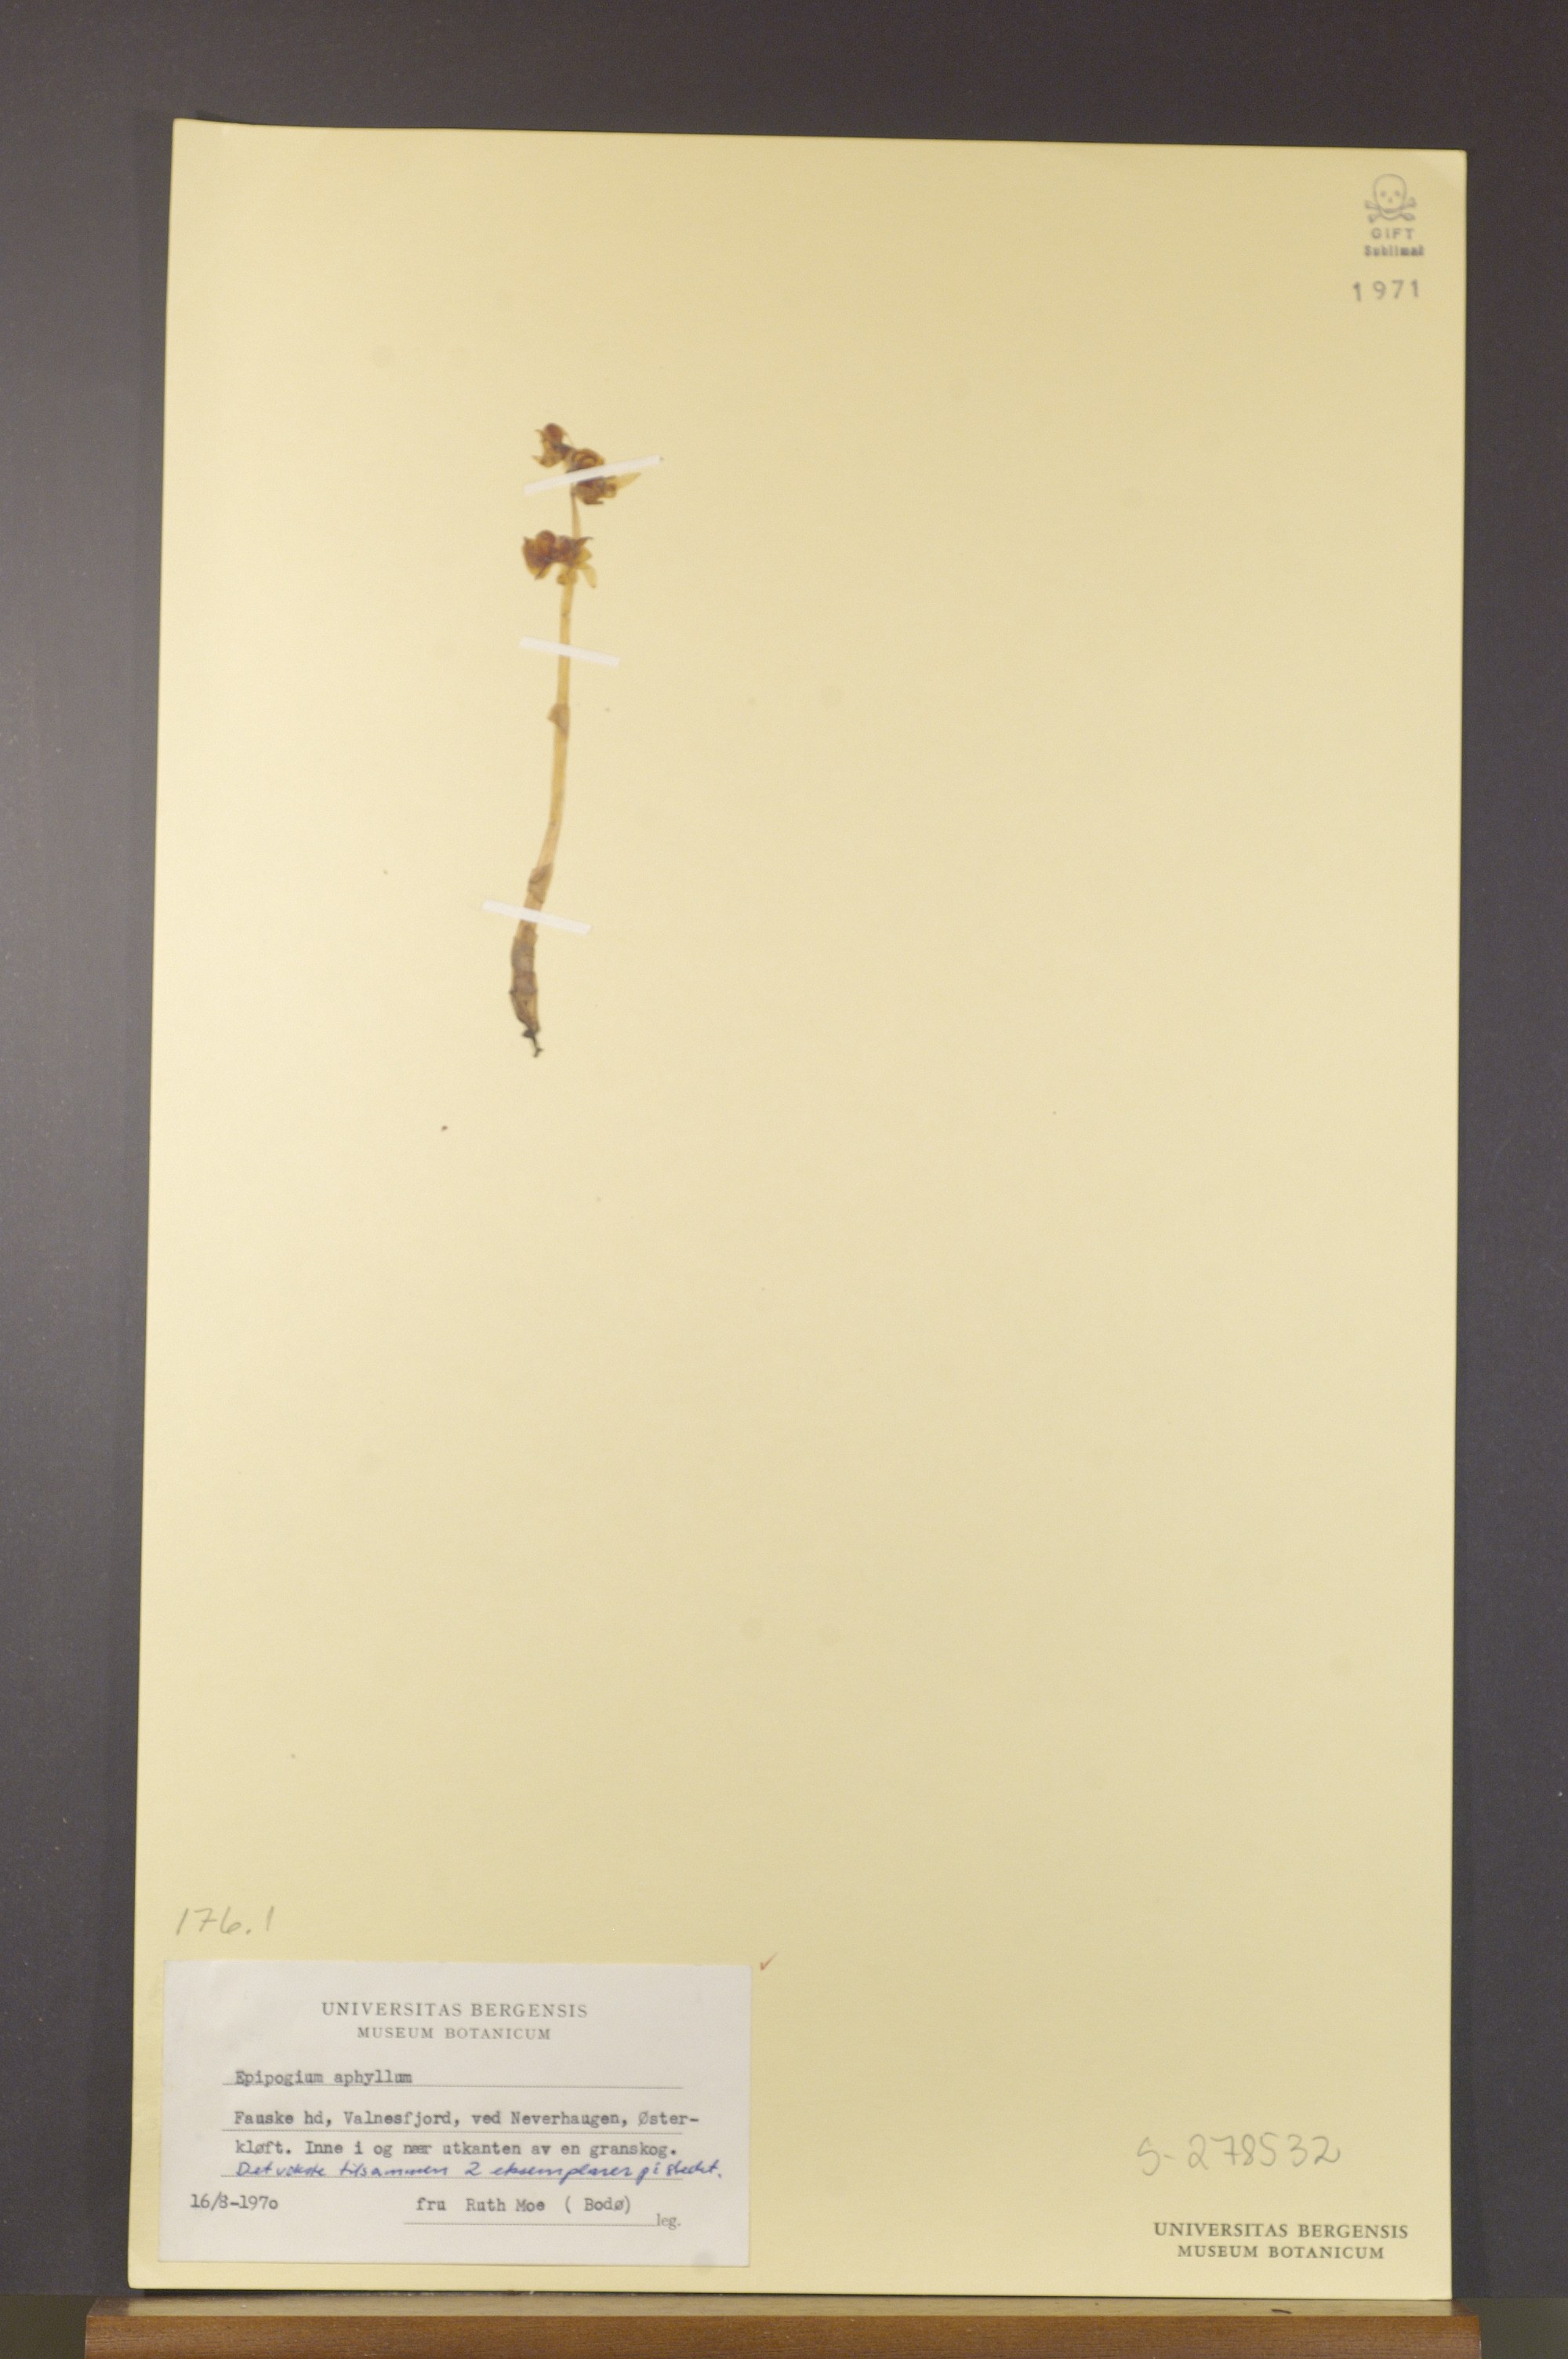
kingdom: Plantae
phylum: Tracheophyta
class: Liliopsida
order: Asparagales
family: Orchidaceae
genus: Epipogium
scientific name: Epipogium aphyllum
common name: Ghost orchid
